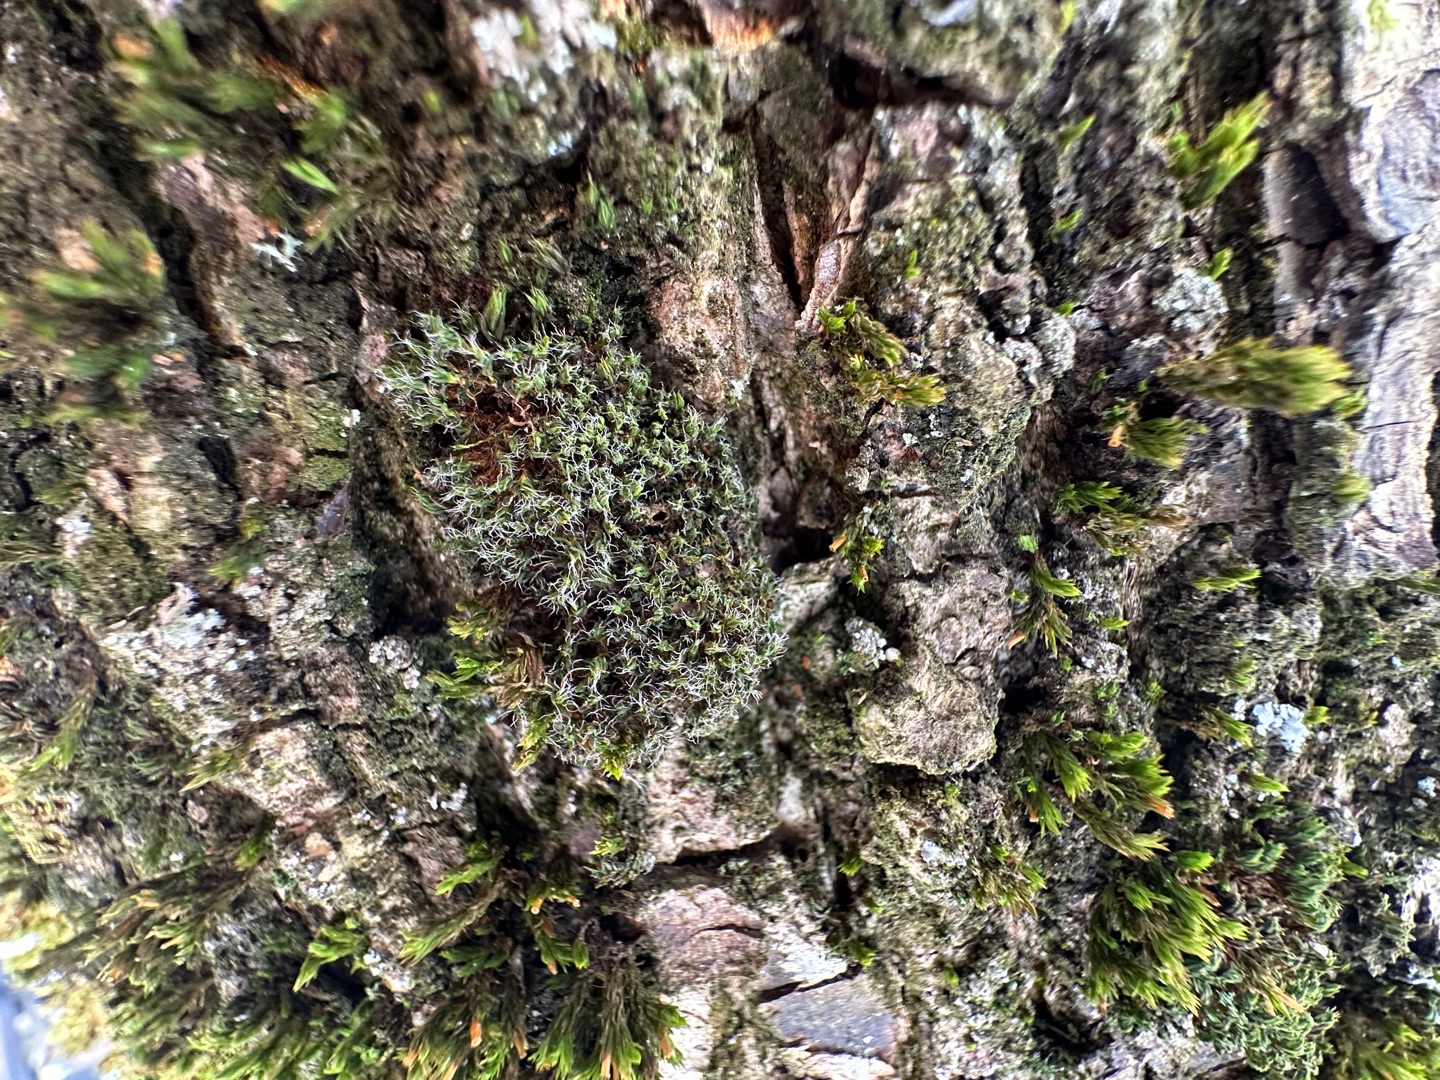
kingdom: Plantae
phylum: Bryophyta
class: Bryopsida
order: Pottiales
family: Pottiaceae
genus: Syntrichia
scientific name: Syntrichia virescens
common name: Grøn hårstjerne
